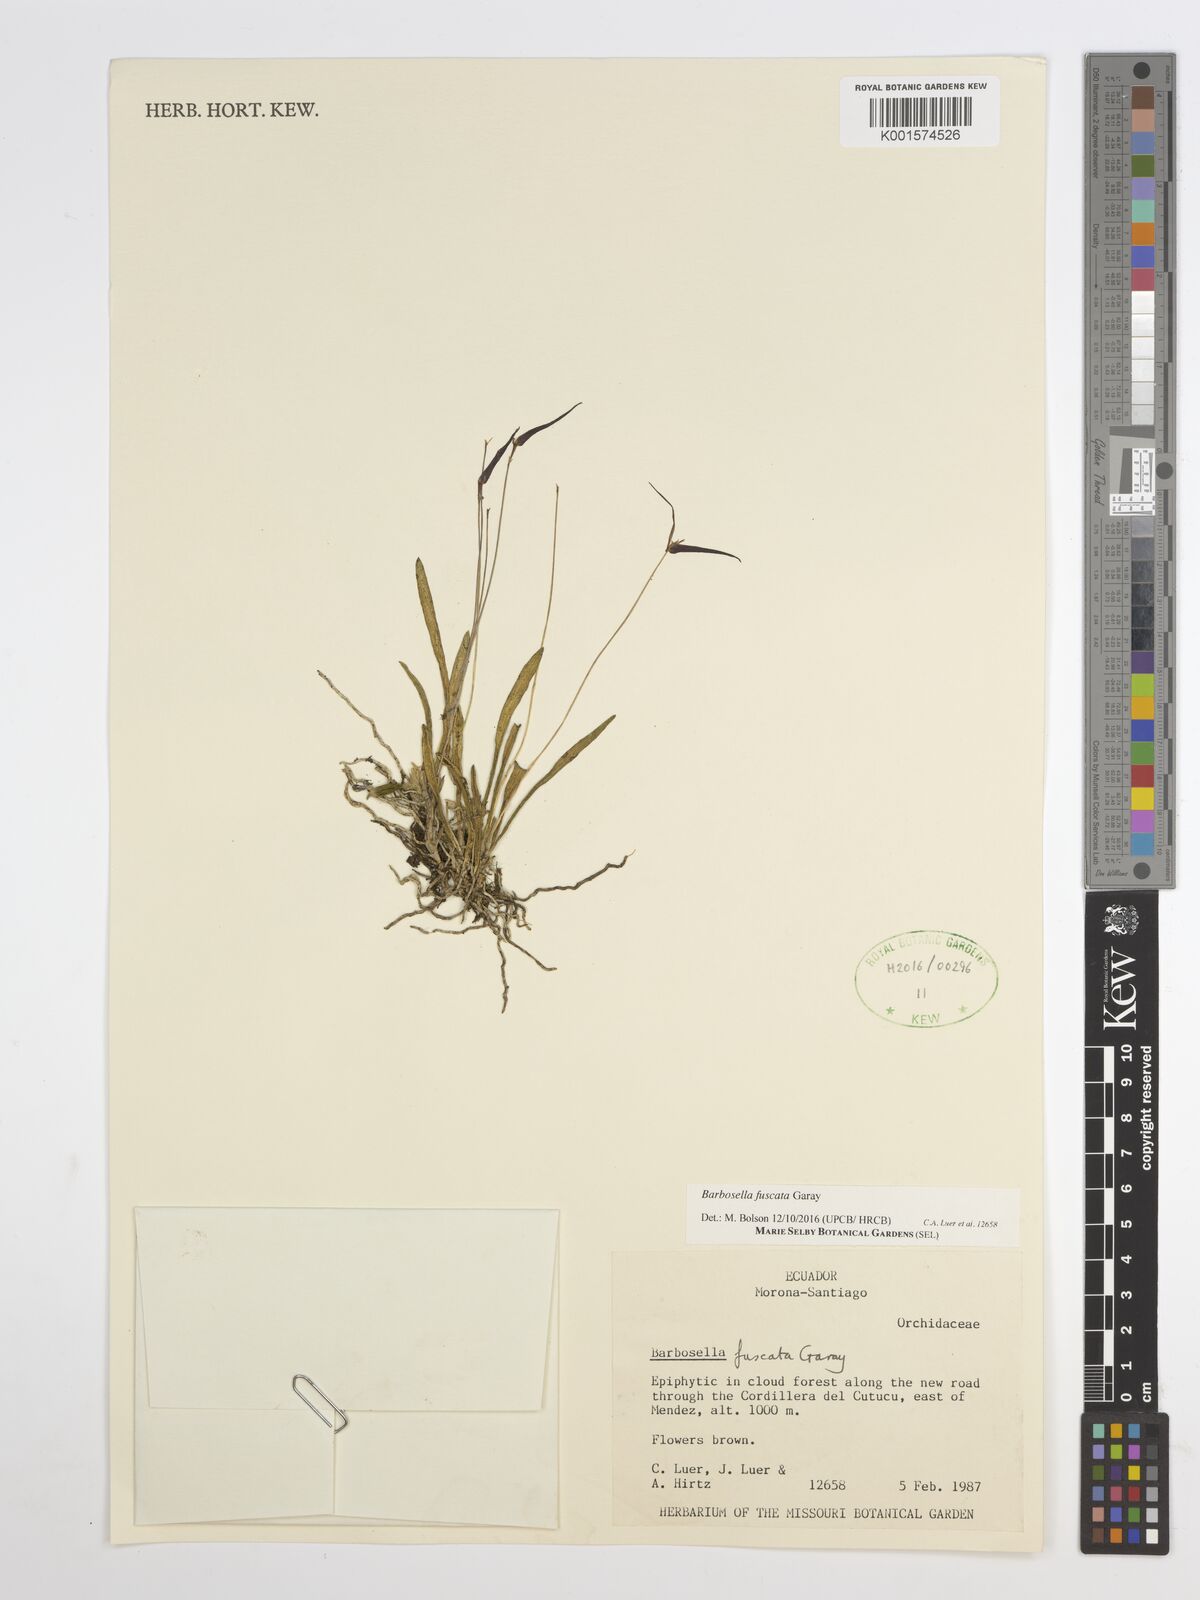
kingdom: Plantae
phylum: Tracheophyta
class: Liliopsida
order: Asparagales
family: Orchidaceae
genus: Barbosella
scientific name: Barbosella dolichorhiza
